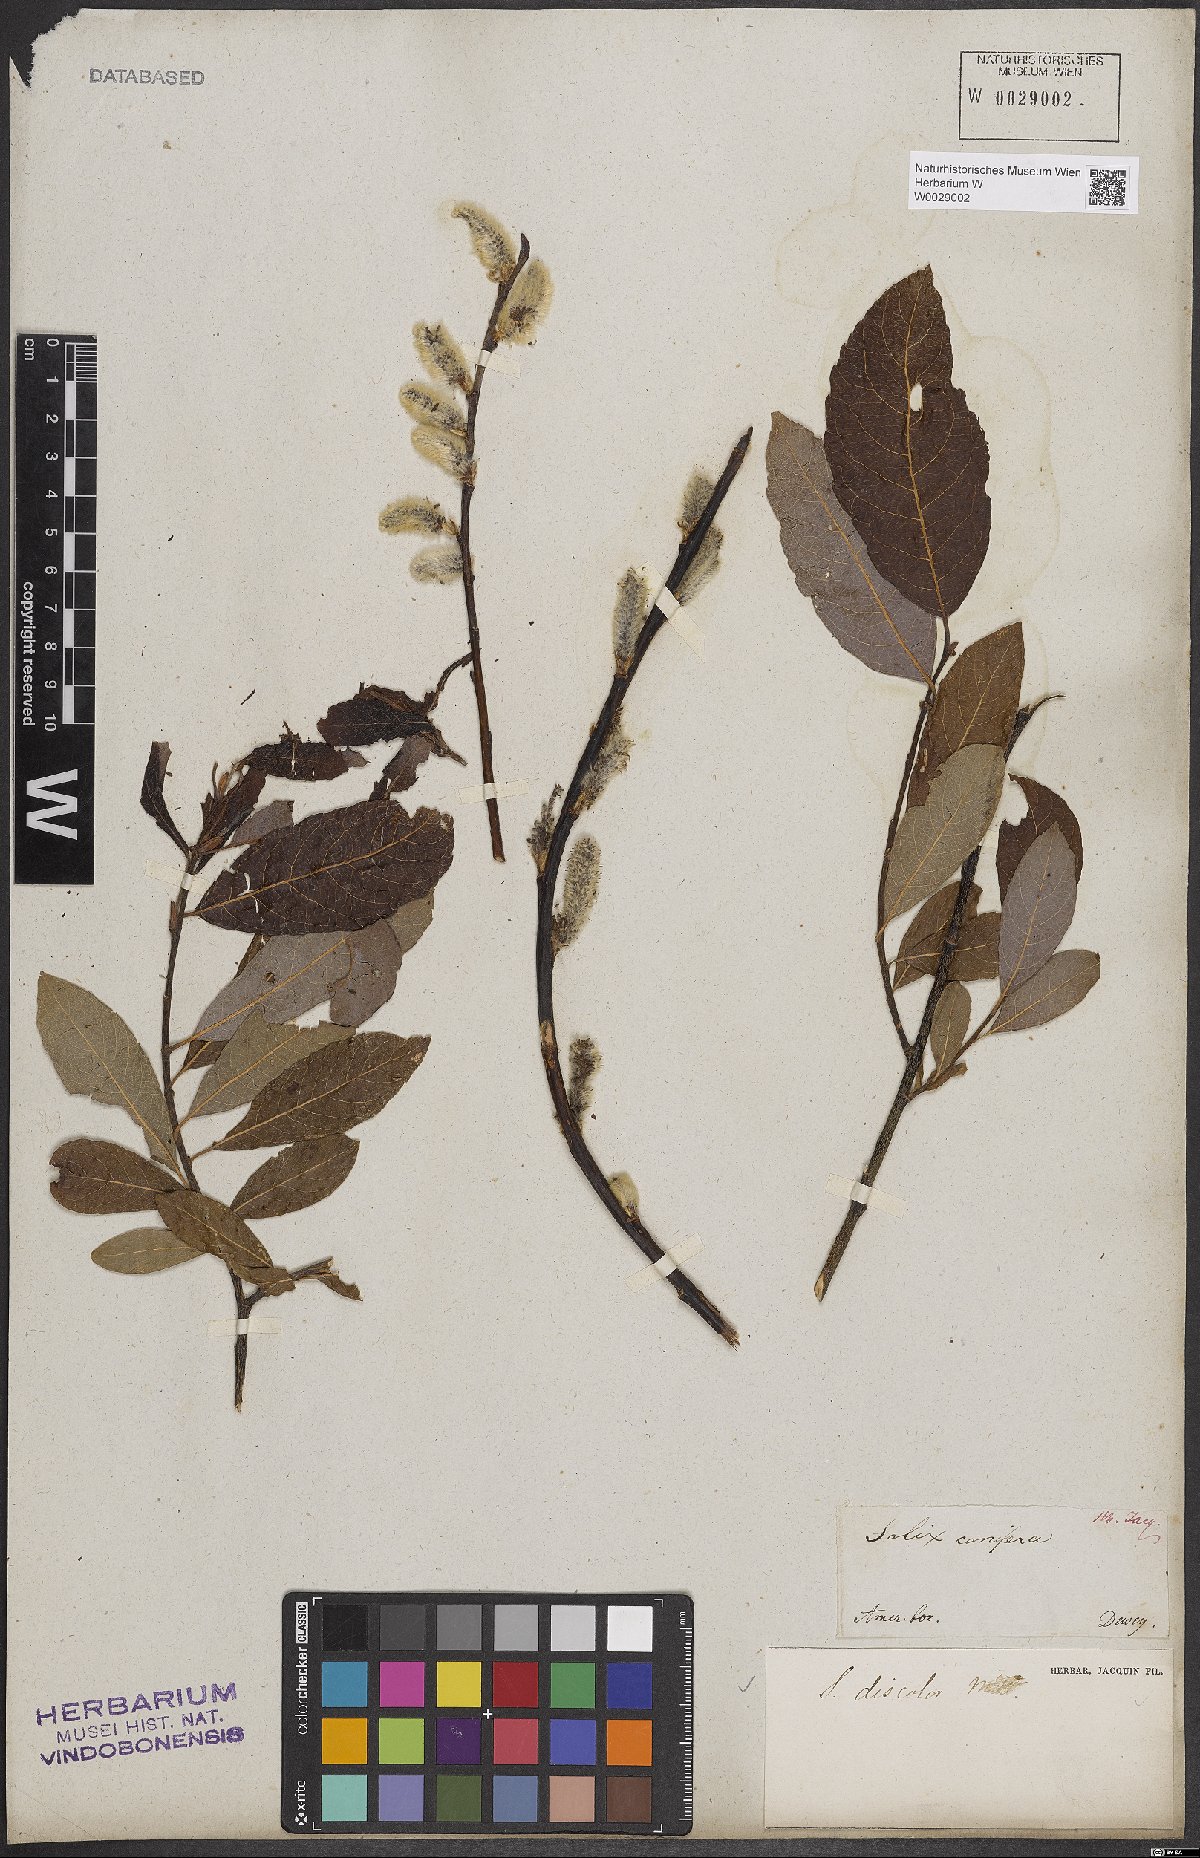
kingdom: Plantae
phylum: Tracheophyta
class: Magnoliopsida
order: Malpighiales
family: Salicaceae
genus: Salix
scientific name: Salix discolor
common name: Glaucous willow
